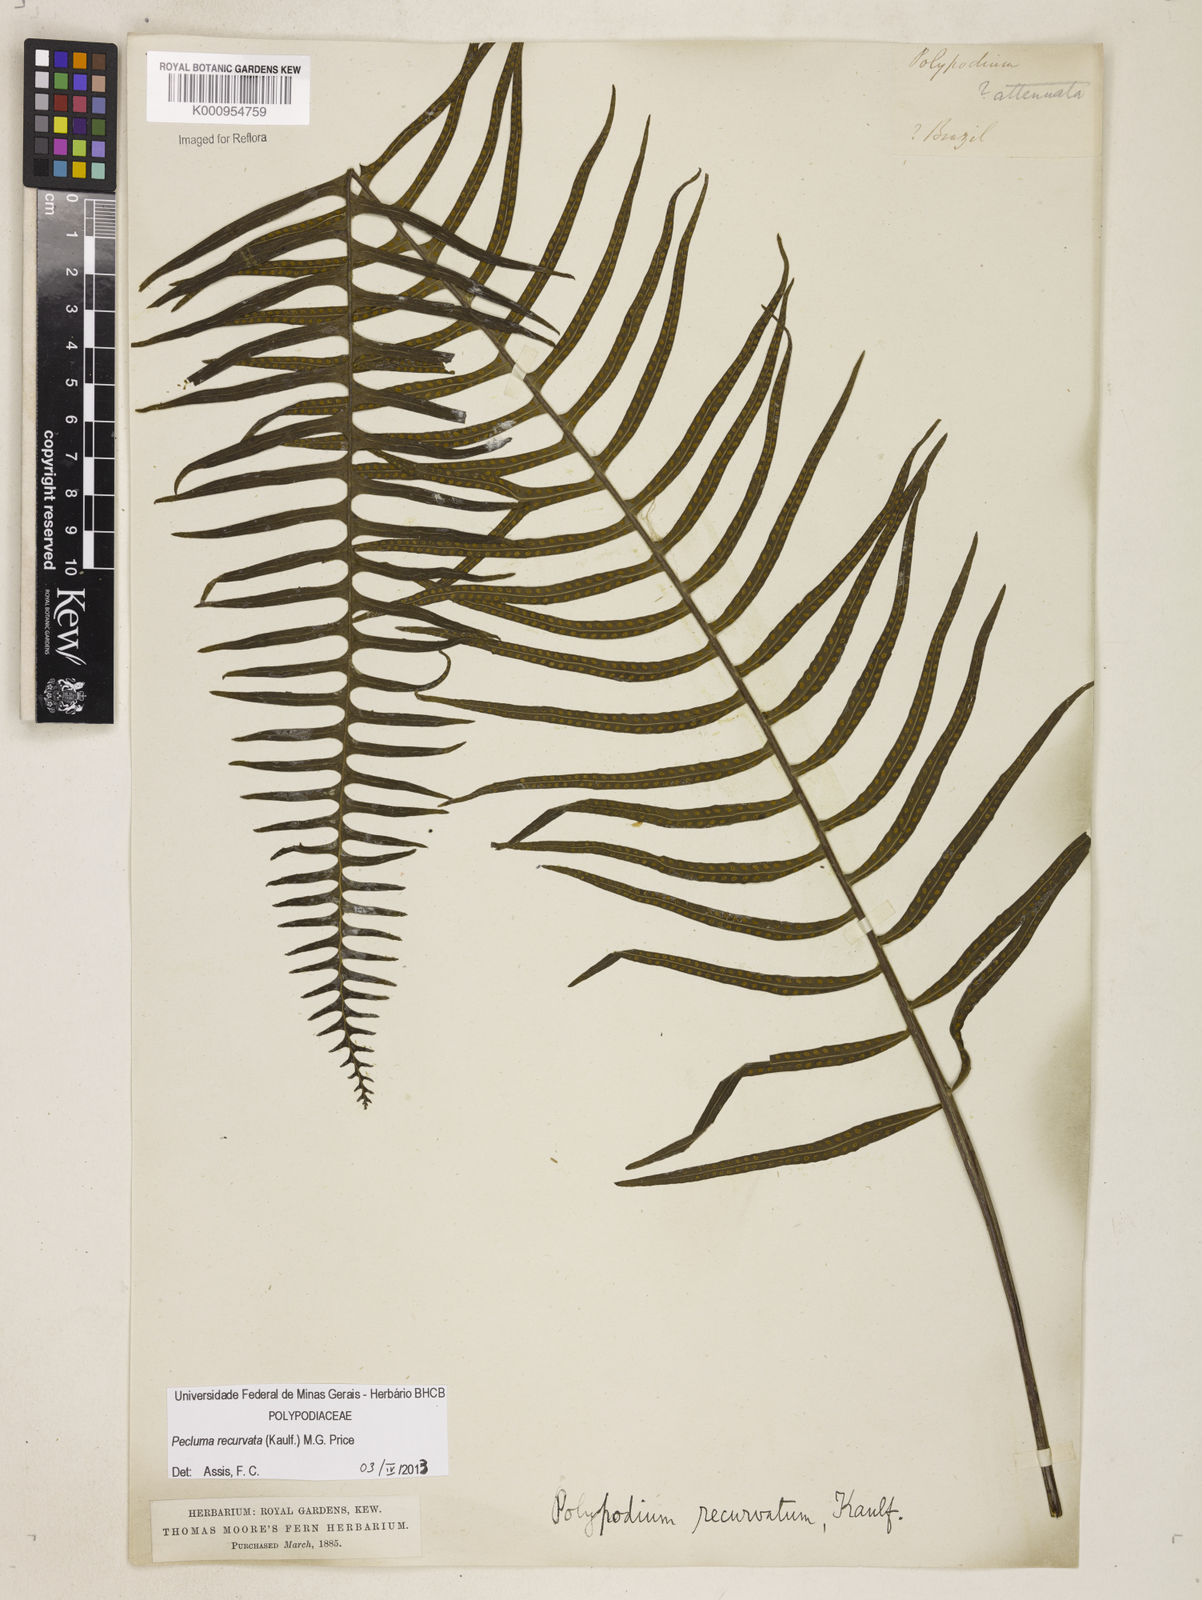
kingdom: Plantae
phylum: Tracheophyta
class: Polypodiopsida
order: Polypodiales
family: Polypodiaceae
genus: Pecluma
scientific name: Pecluma recurvata
